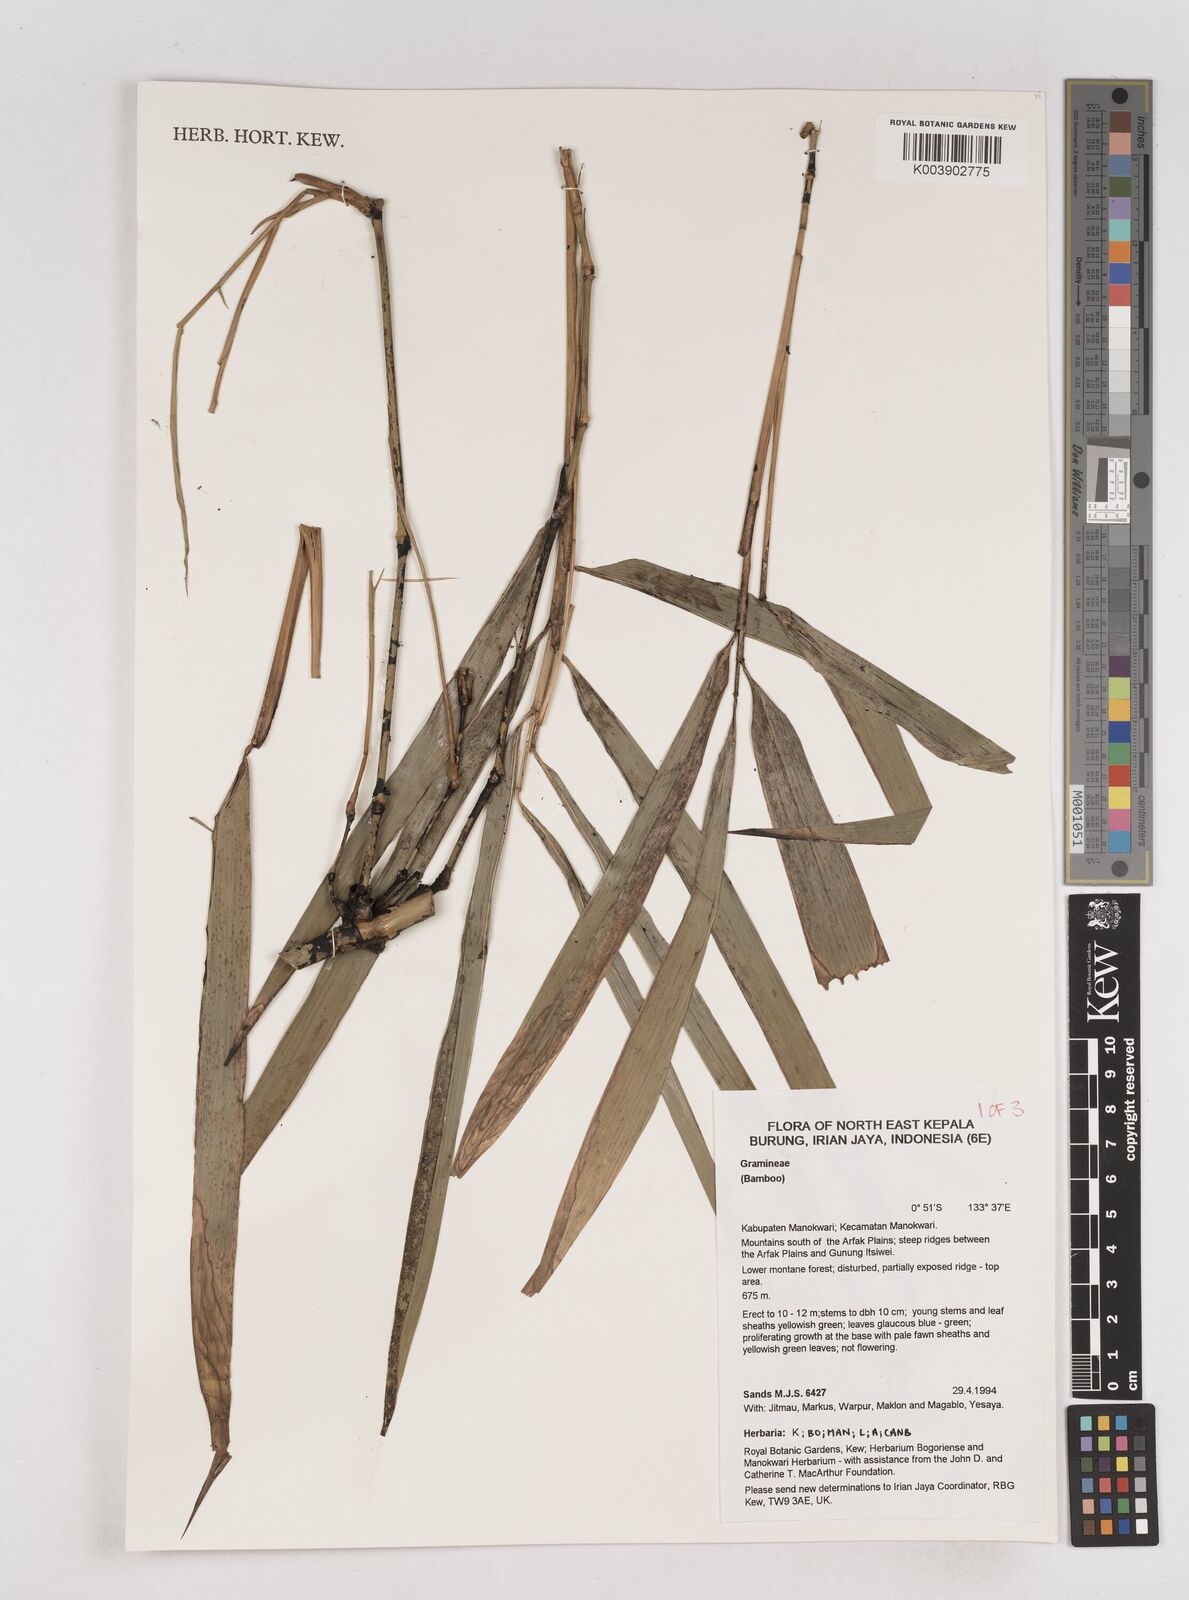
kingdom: Plantae
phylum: Tracheophyta
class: Liliopsida
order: Poales
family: Poaceae
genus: Schizostachyum
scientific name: Schizostachyum
